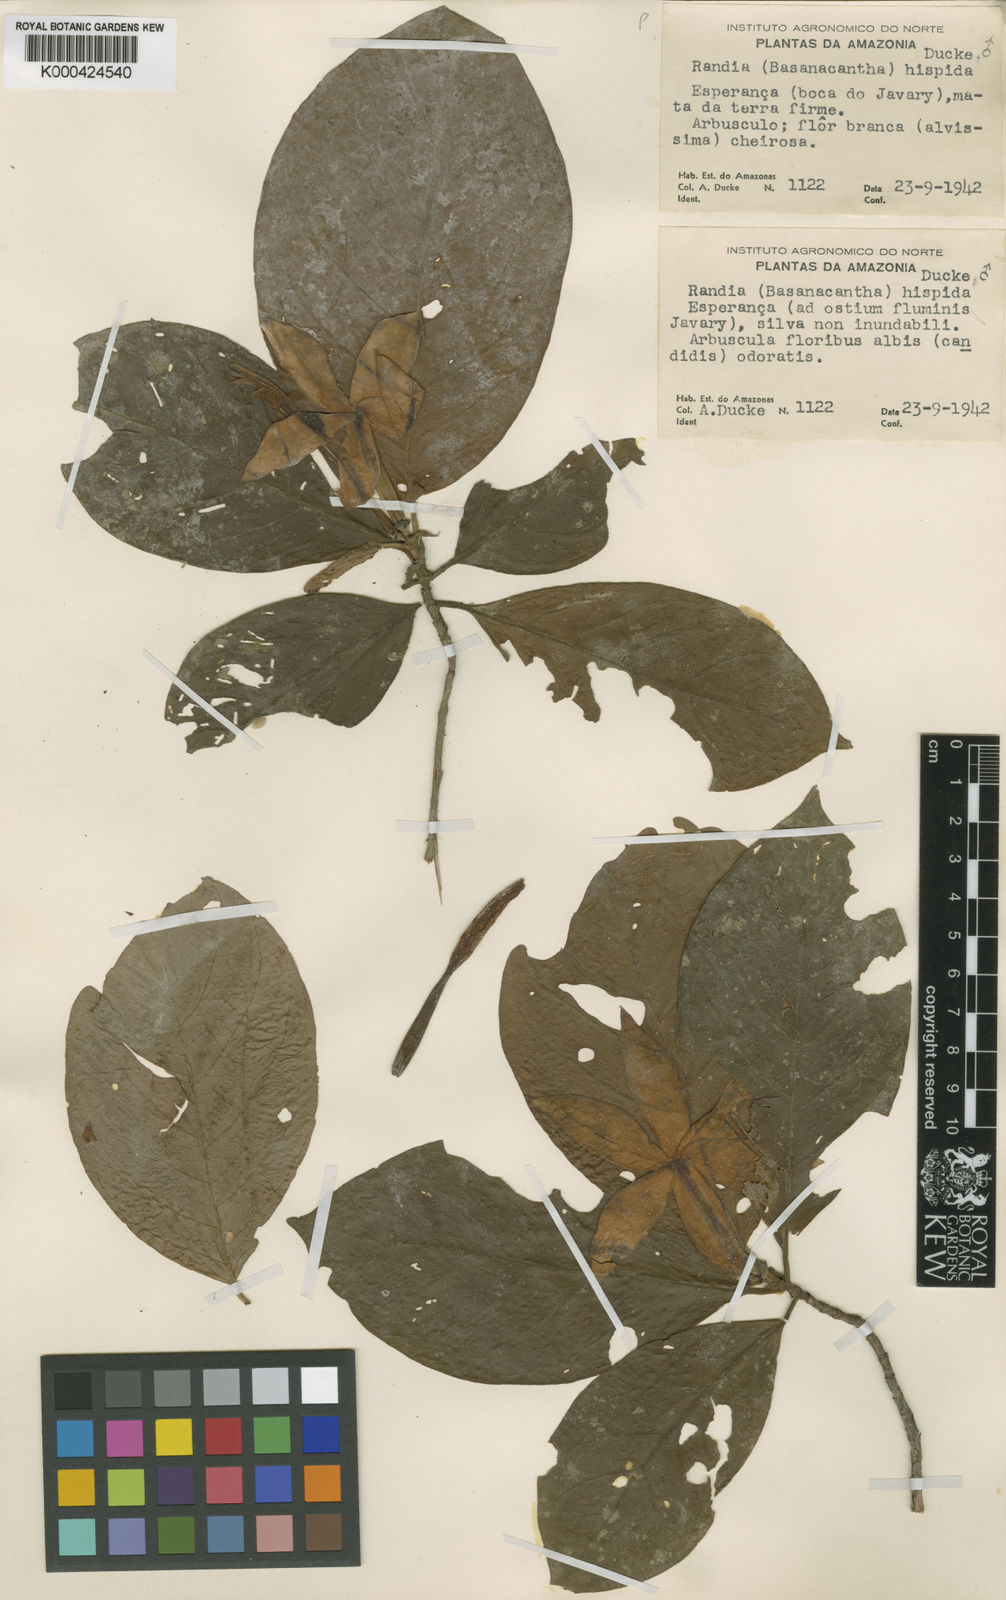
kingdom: Plantae
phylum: Tracheophyta
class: Magnoliopsida
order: Gentianales
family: Rubiaceae
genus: Cordiera
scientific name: Cordiera killipii
